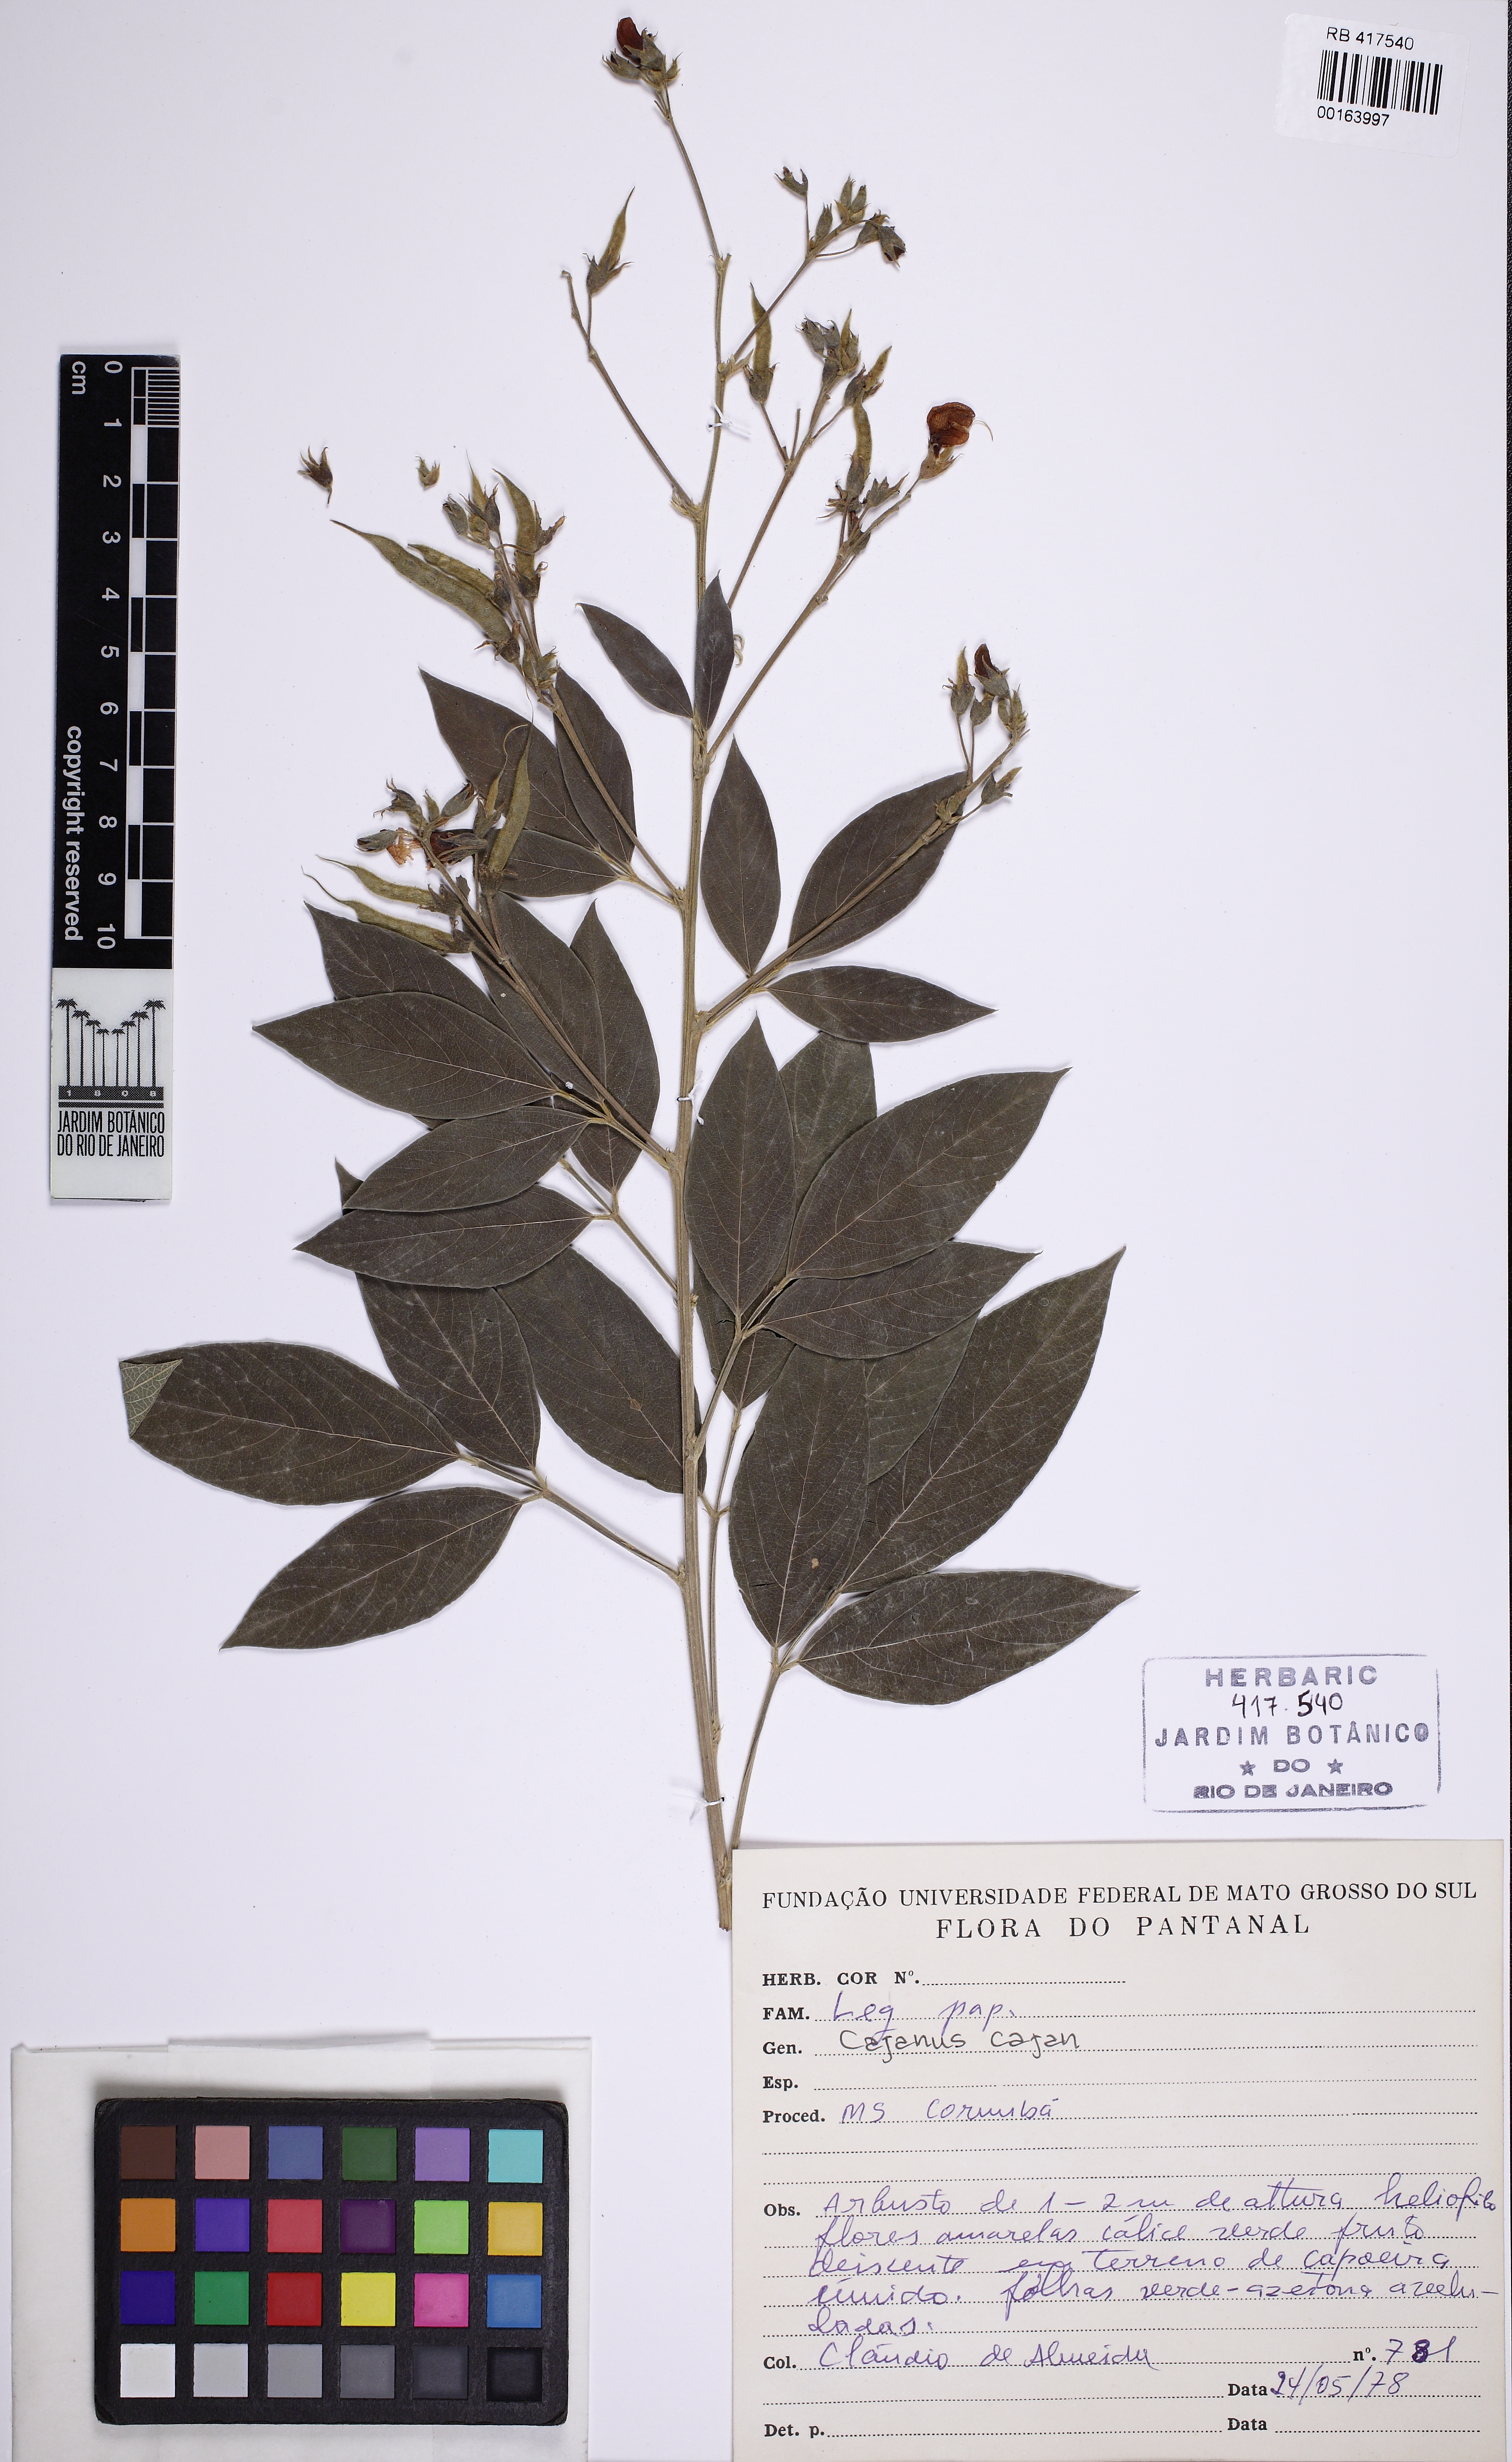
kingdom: Plantae
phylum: Tracheophyta
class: Magnoliopsida
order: Fabales
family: Fabaceae
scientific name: Fabaceae
